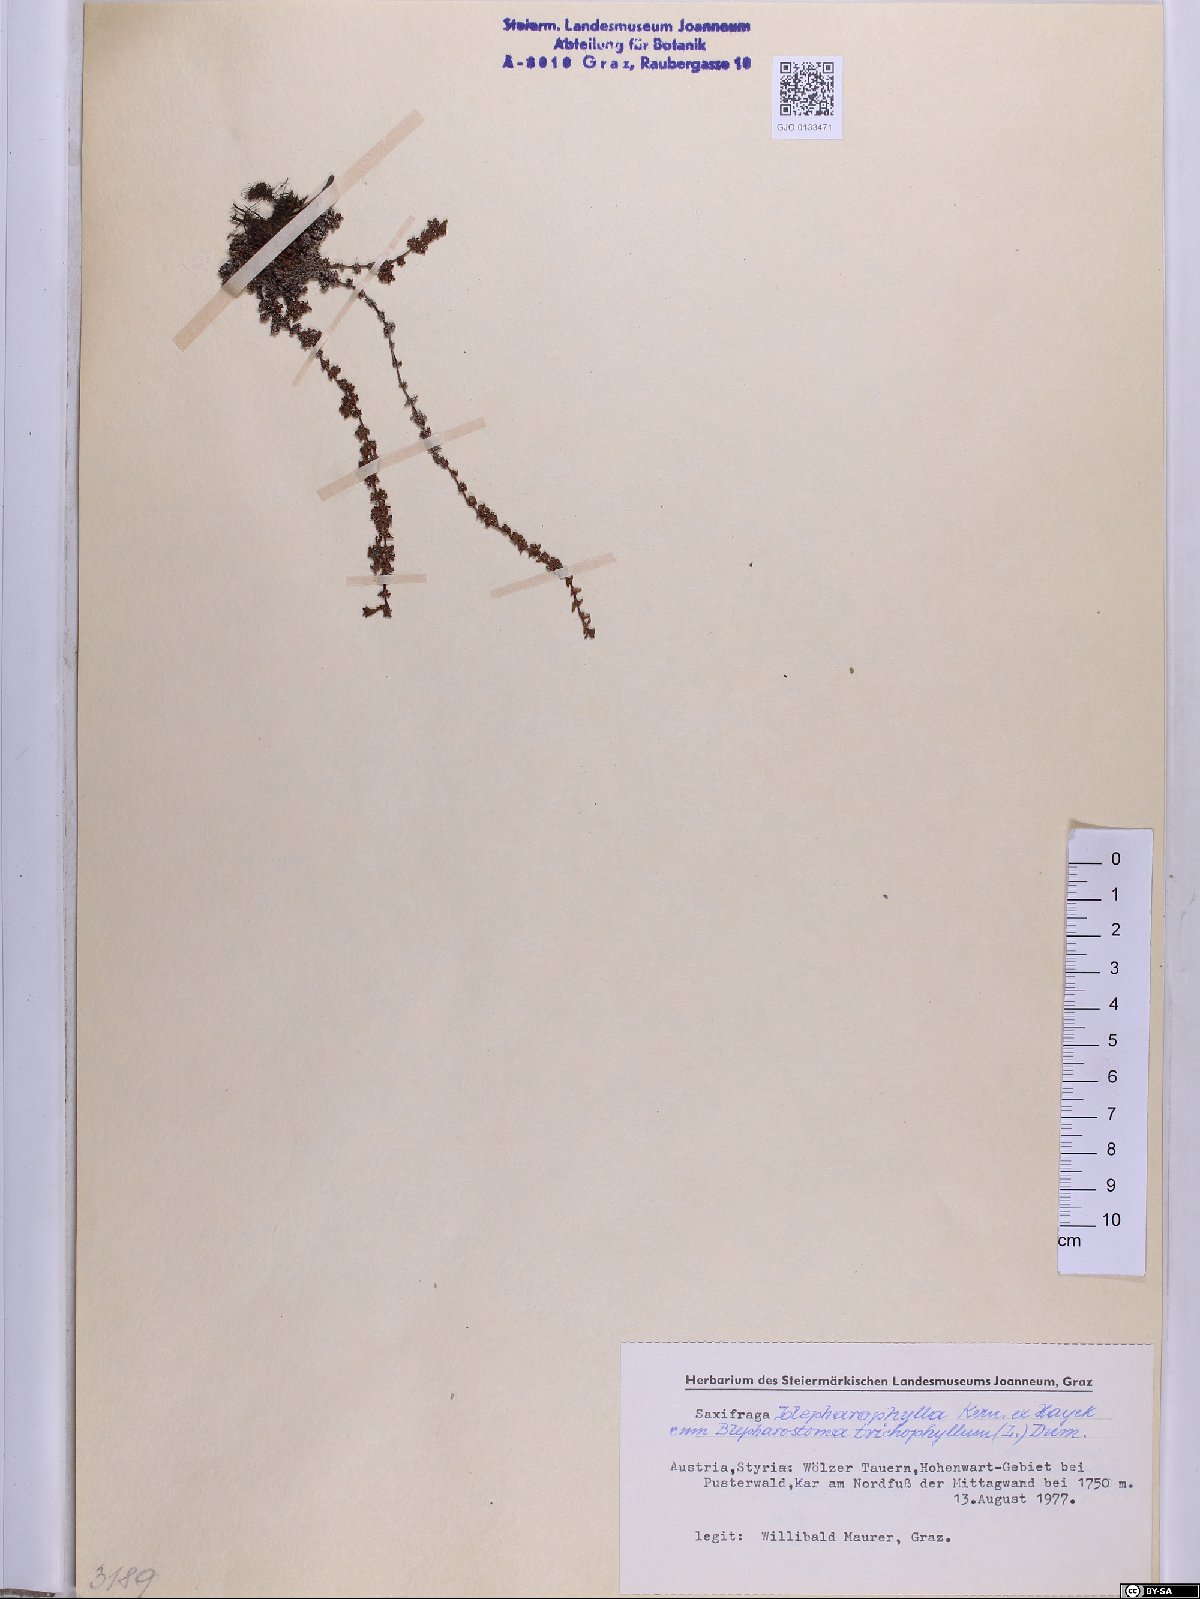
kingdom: Plantae
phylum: Tracheophyta
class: Magnoliopsida
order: Saxifragales
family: Saxifragaceae
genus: Saxifraga
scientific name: Saxifraga oppositifolia
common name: Purple saxifrage
